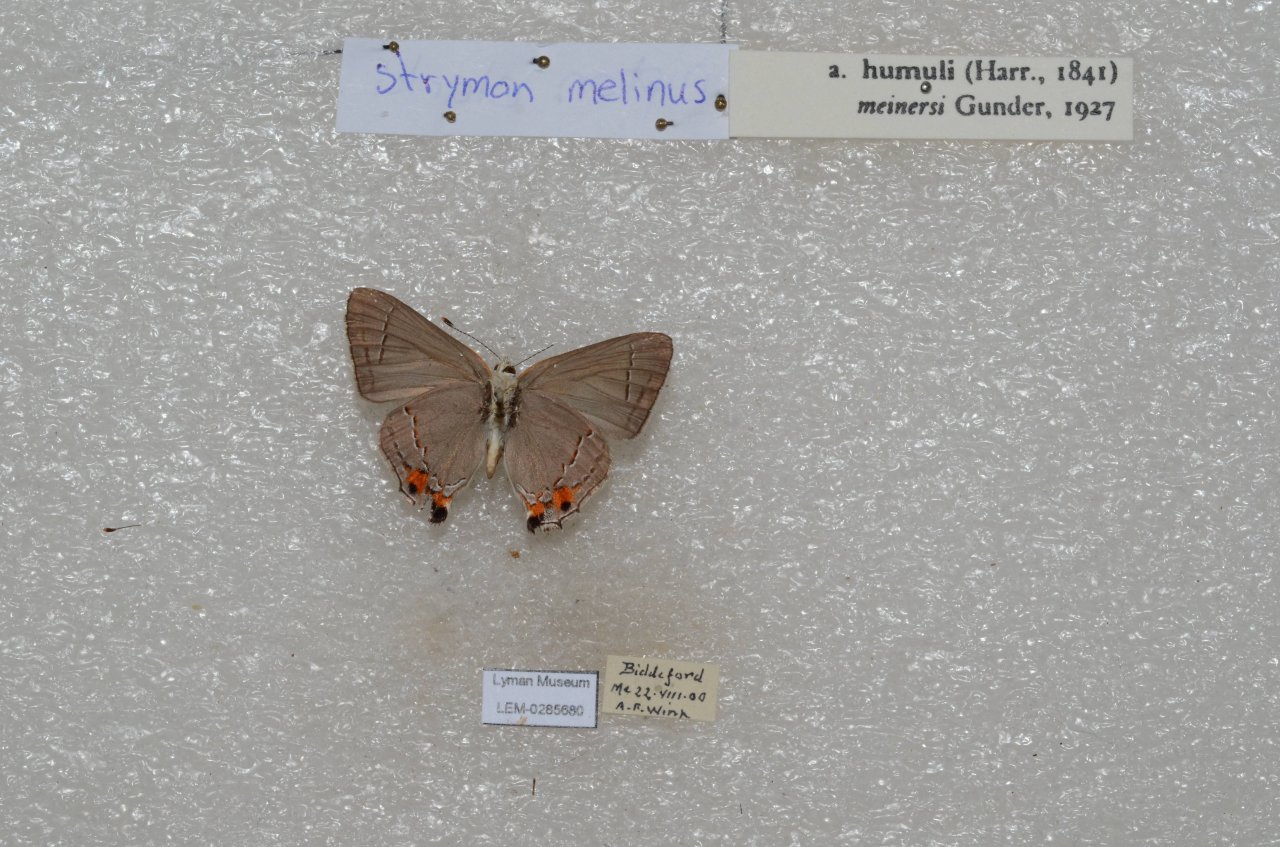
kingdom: Animalia
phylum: Arthropoda
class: Insecta
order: Lepidoptera
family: Lycaenidae
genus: Strymon
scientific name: Strymon melinus
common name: Gray Hairstreak
